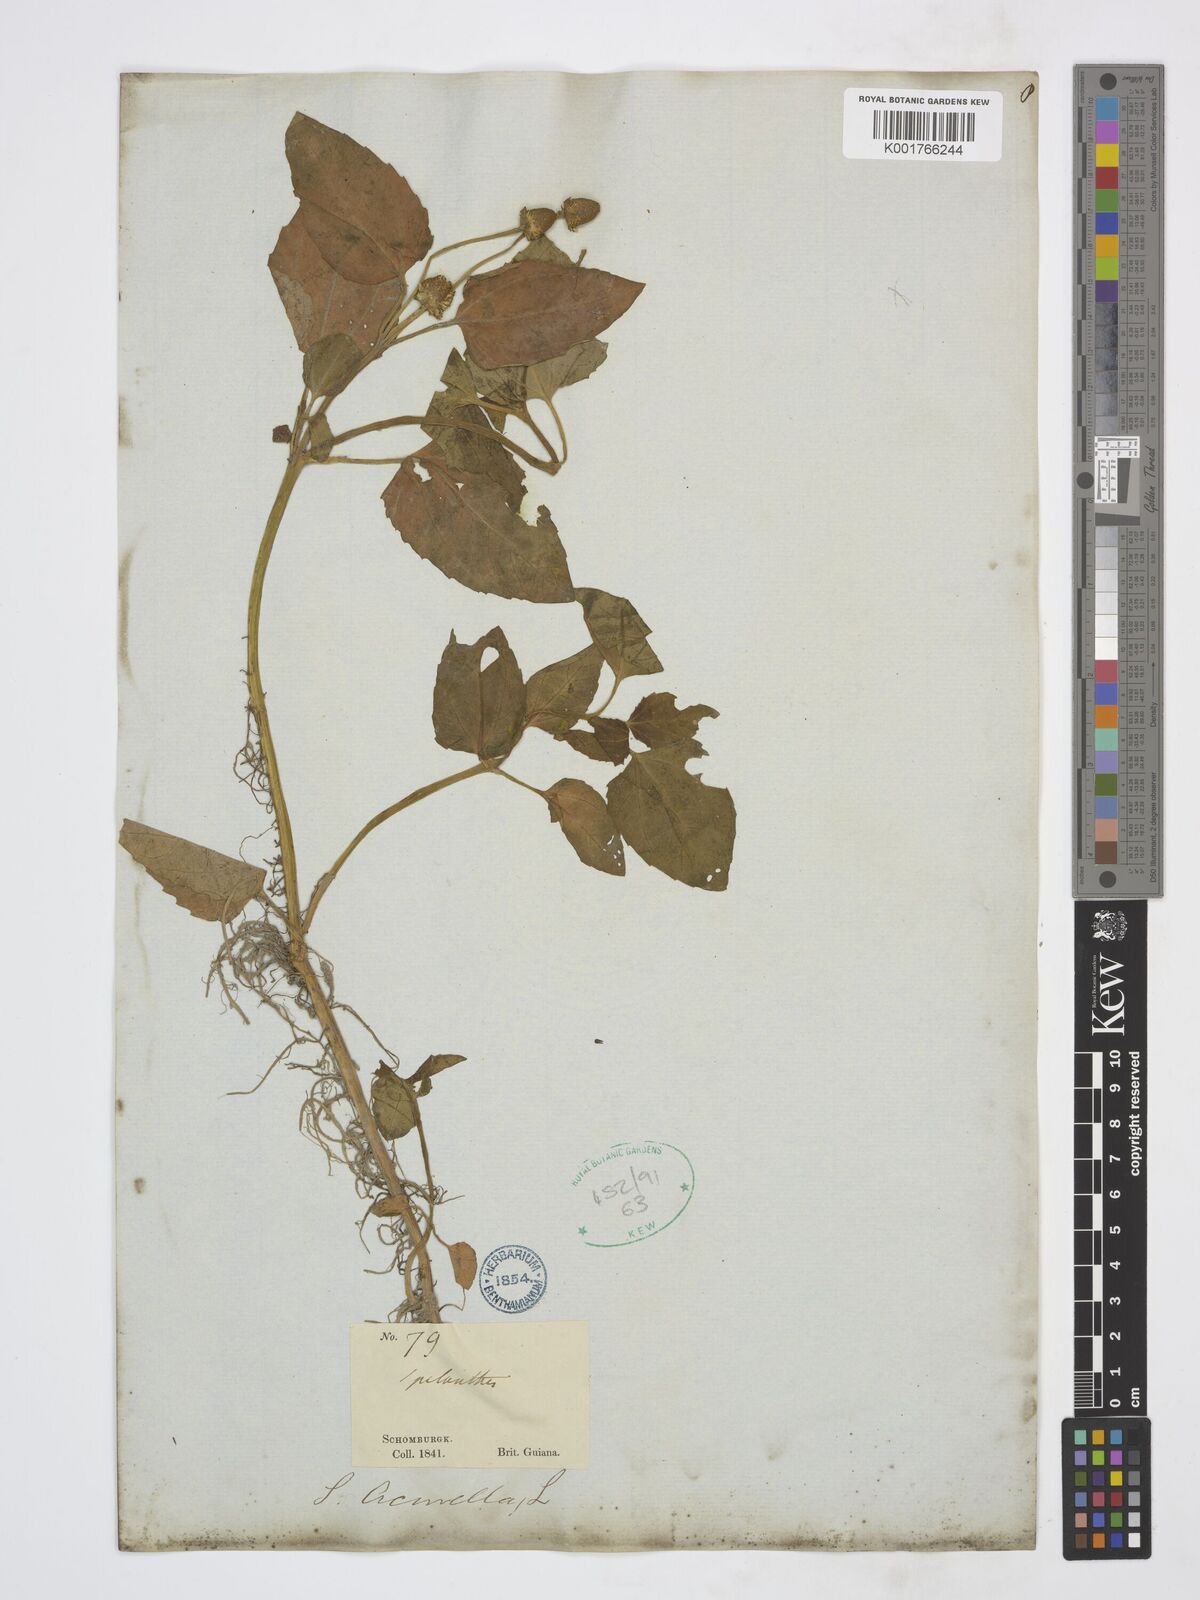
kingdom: Plantae
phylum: Tracheophyta
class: Magnoliopsida
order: Asterales
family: Asteraceae
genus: Acmella
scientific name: Acmella ciliata
